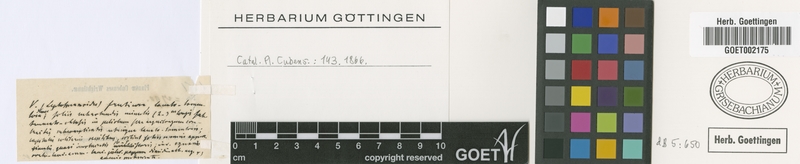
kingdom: Plantae
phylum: Tracheophyta
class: Magnoliopsida
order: Asterales
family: Asteraceae
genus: Lepidaploa
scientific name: Lepidaploa complicata
